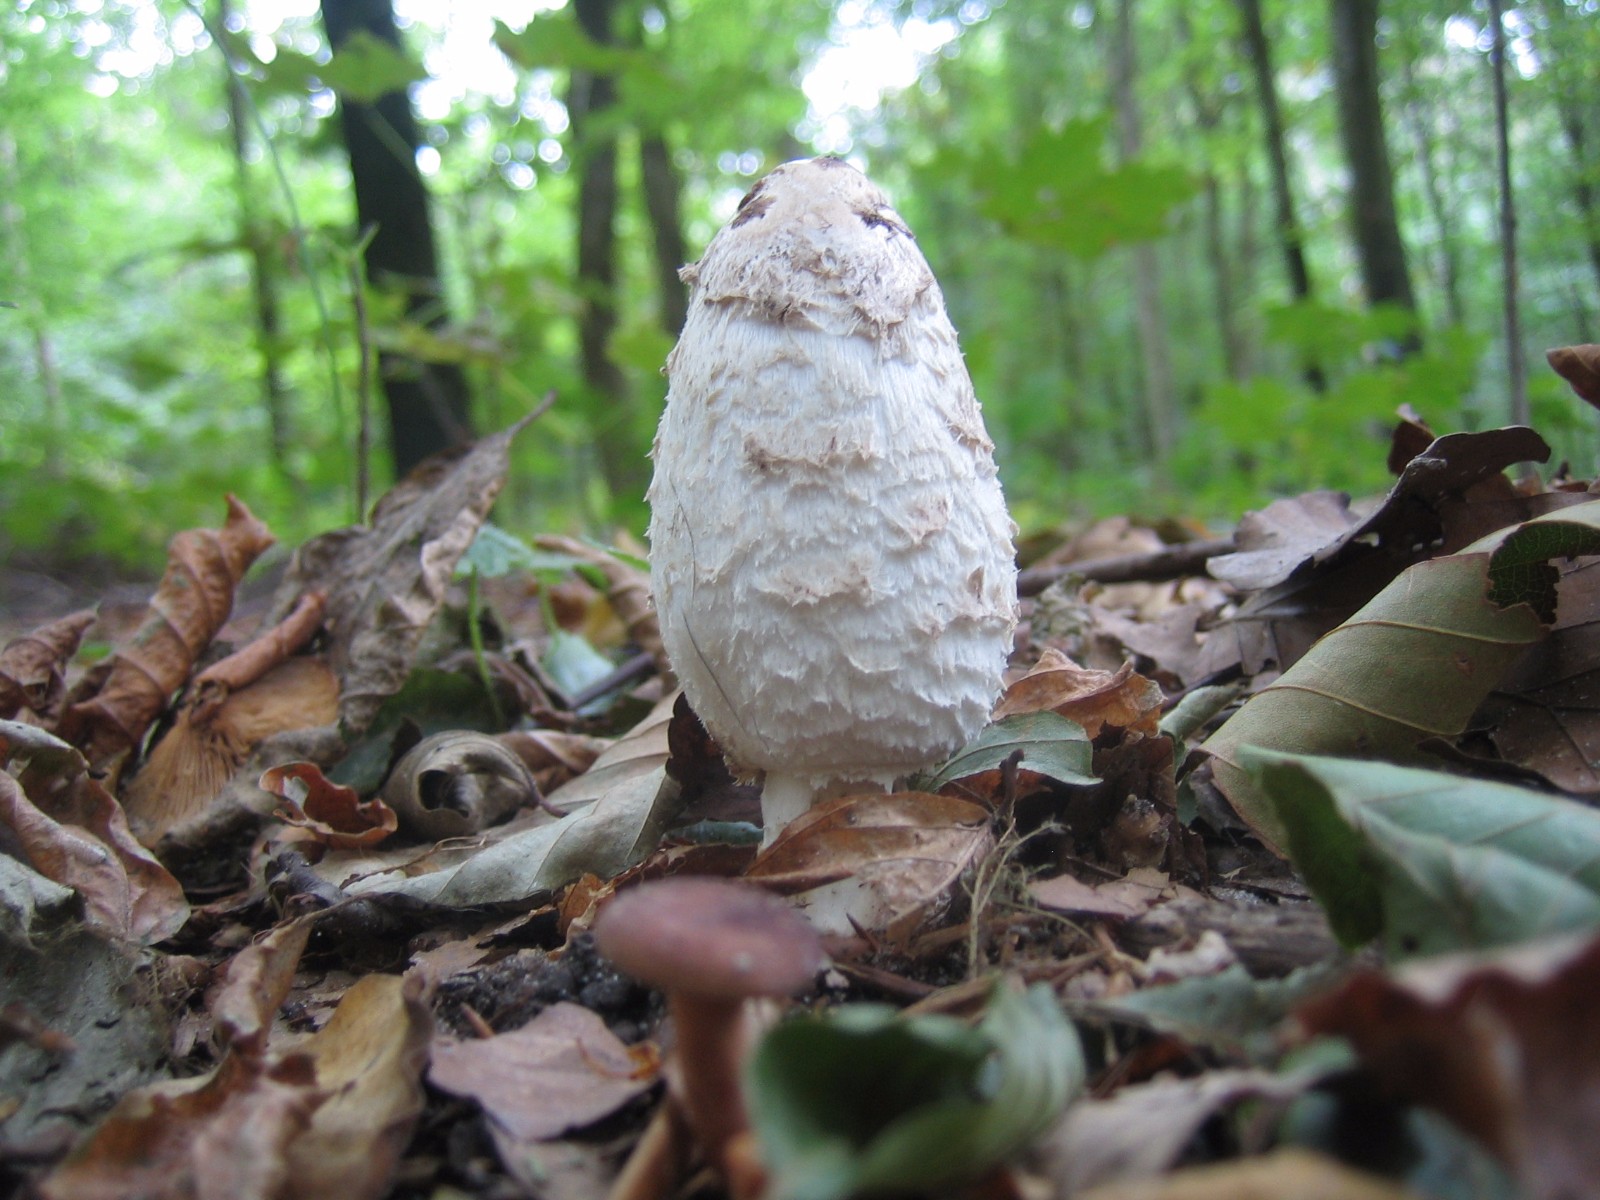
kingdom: Fungi
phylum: Basidiomycota
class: Agaricomycetes
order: Agaricales
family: Agaricaceae
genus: Coprinus
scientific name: Coprinus comatus
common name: stor parykhat
